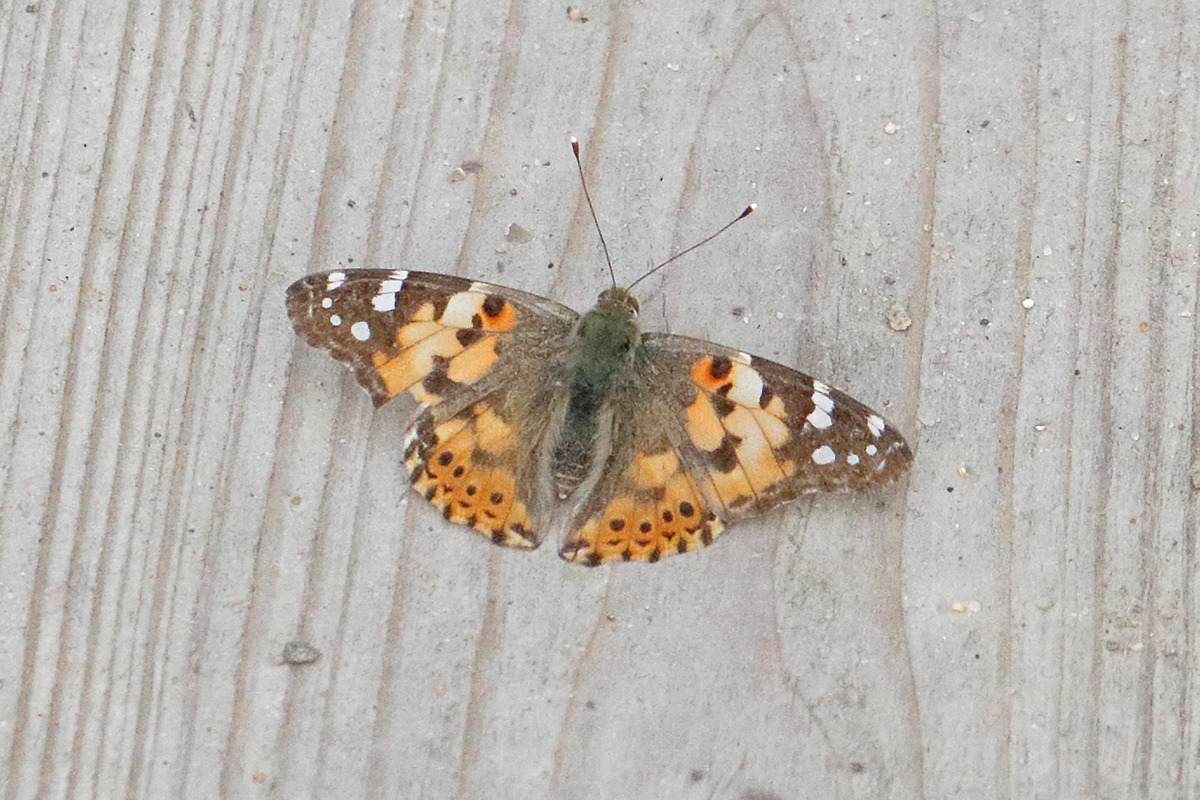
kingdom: Animalia
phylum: Arthropoda
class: Insecta
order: Lepidoptera
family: Nymphalidae
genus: Vanessa
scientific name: Vanessa cardui
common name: Tidselsommerfugl
